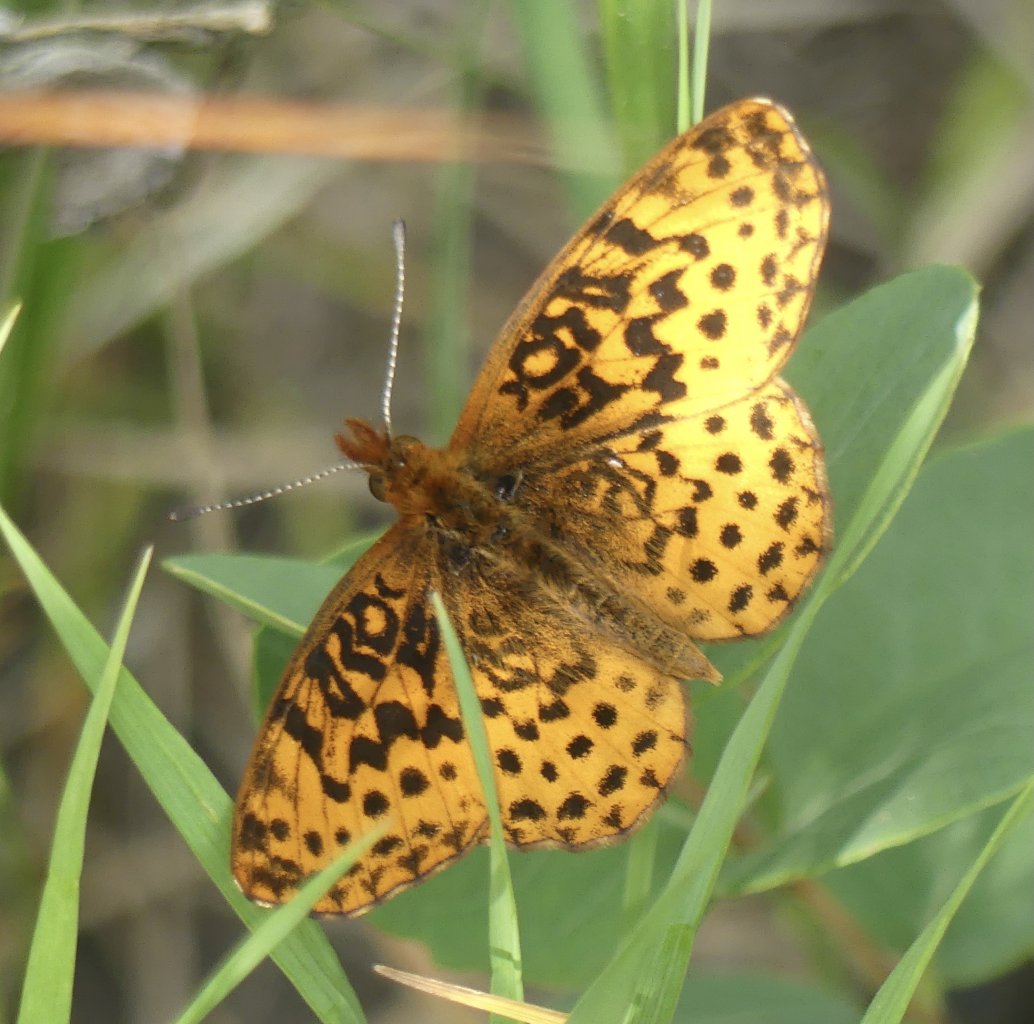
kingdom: Animalia
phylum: Arthropoda
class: Insecta
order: Lepidoptera
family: Nymphalidae
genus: Clossiana
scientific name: Clossiana toddi
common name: Meadow Fritillary
